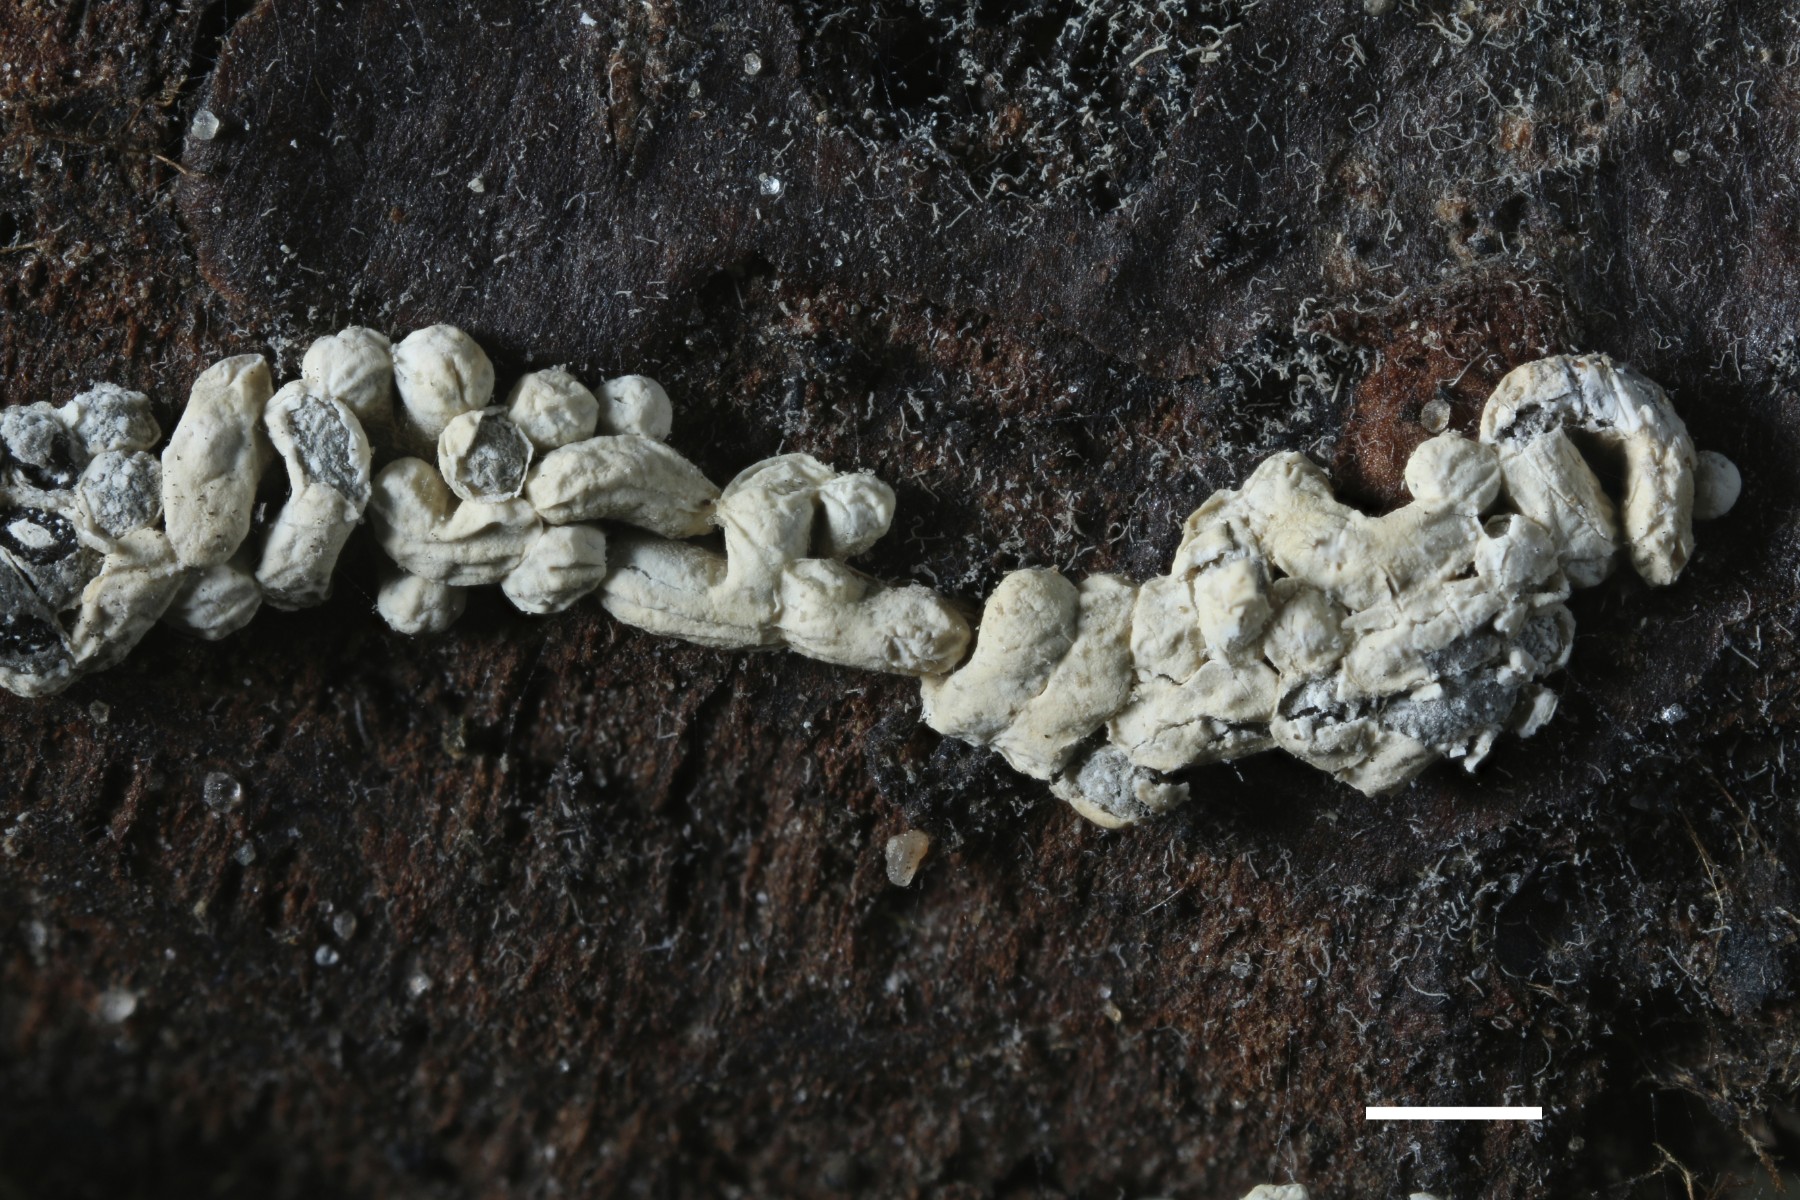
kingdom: Protozoa
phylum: Mycetozoa
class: Myxomycetes
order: Physarales
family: Physaraceae
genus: Physarum
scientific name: Physarum contextum
